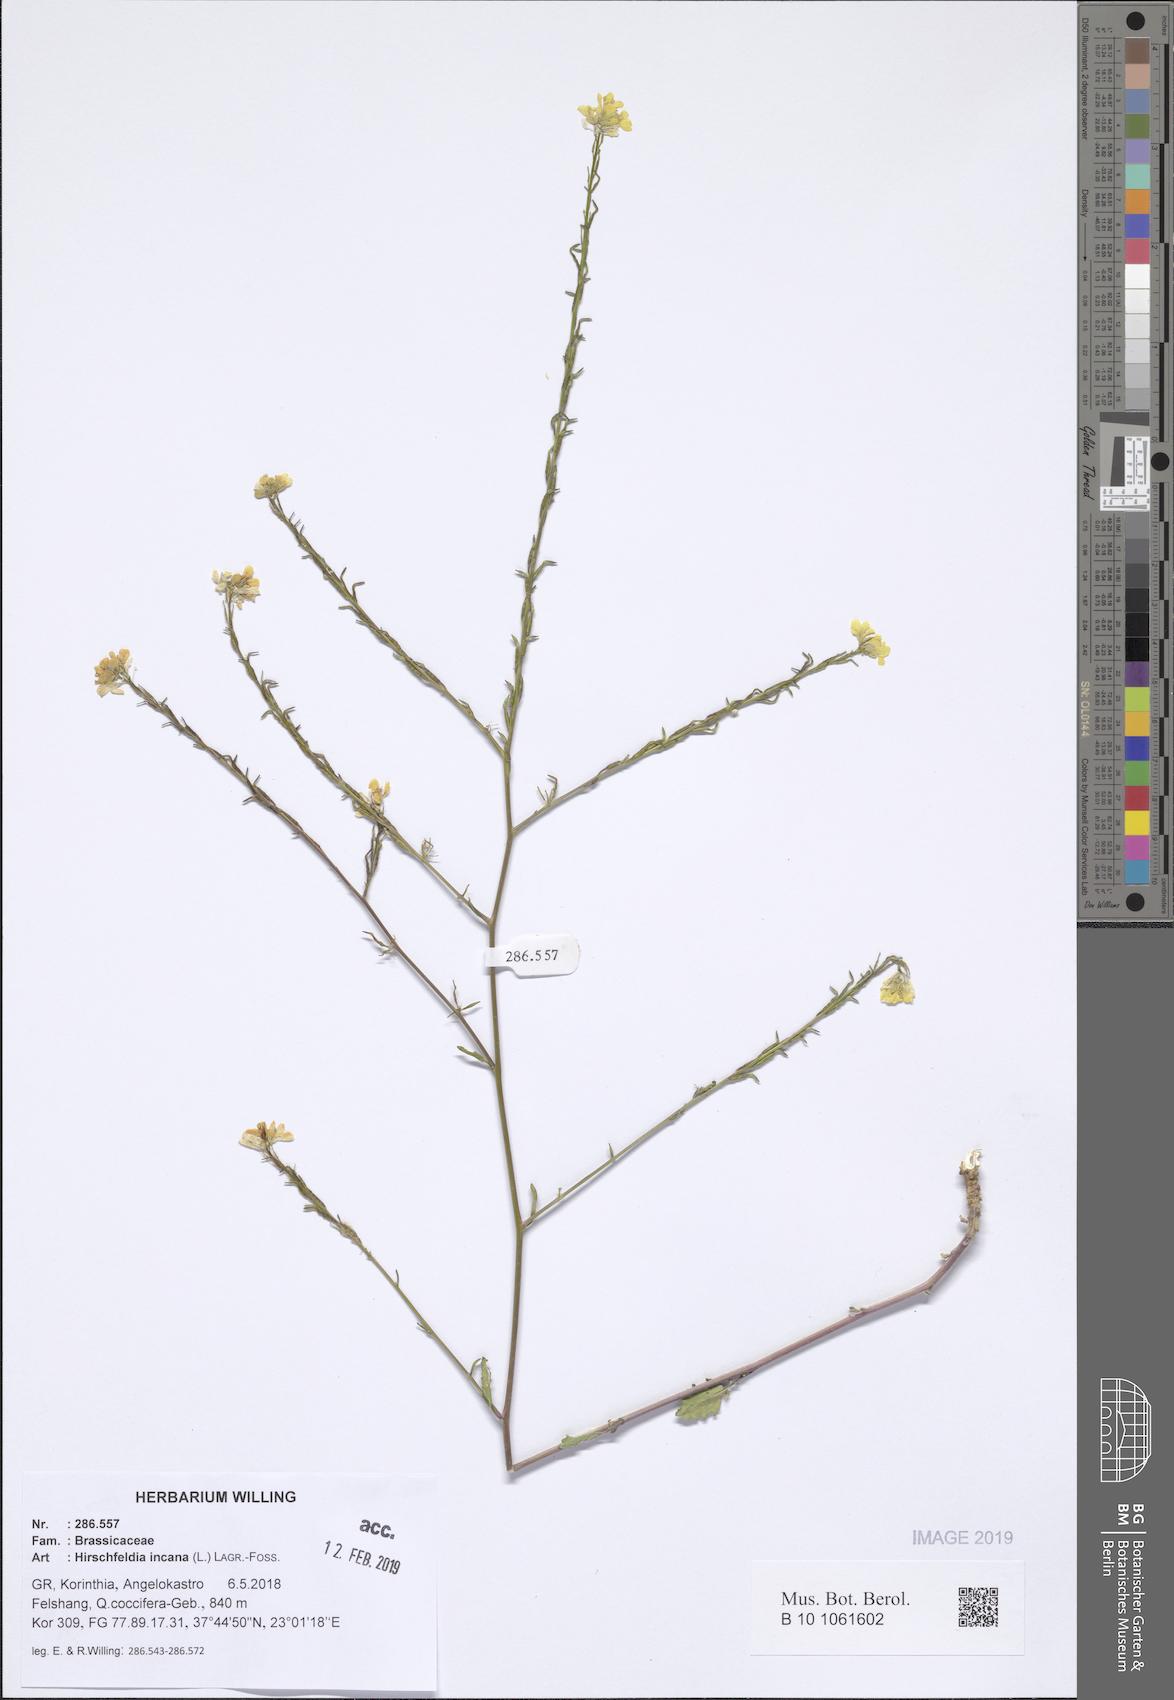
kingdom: Plantae
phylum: Tracheophyta
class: Magnoliopsida
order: Brassicales
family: Brassicaceae
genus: Hirschfeldia
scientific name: Hirschfeldia incana
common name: Hoary mustard
